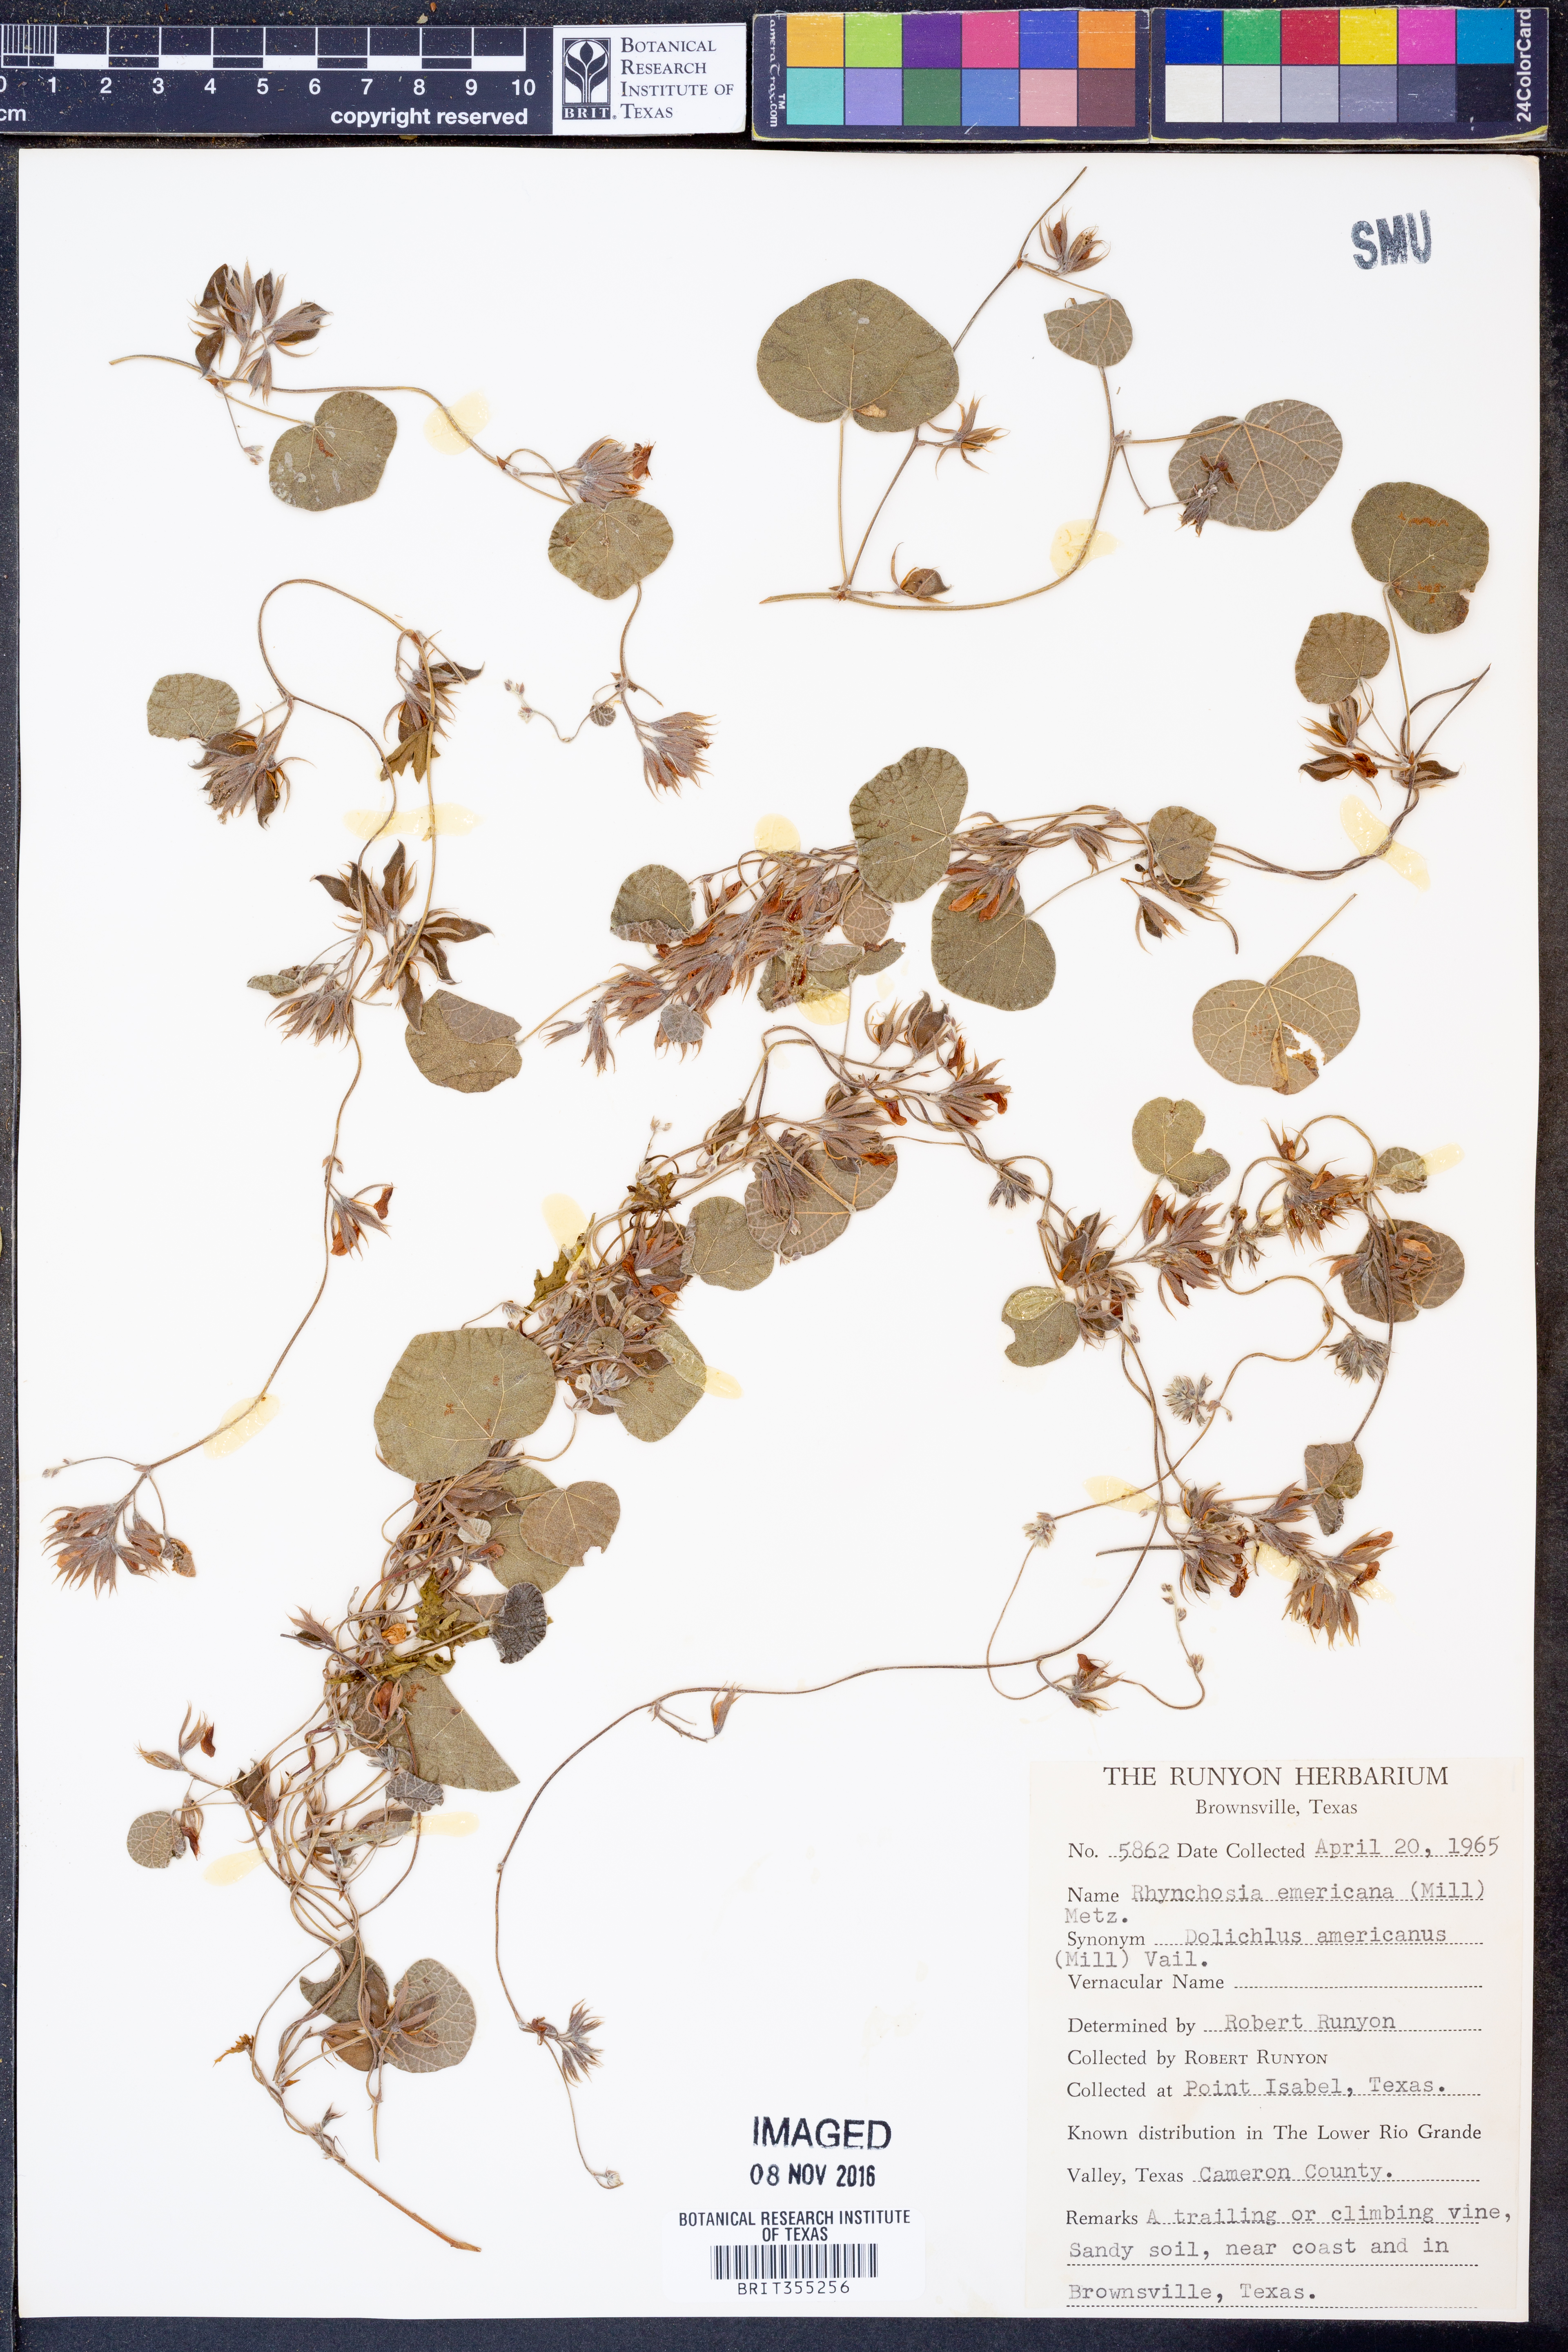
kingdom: Plantae
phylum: Tracheophyta
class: Magnoliopsida
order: Fabales
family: Fabaceae
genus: Rhynchosia
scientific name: Rhynchosia americana
